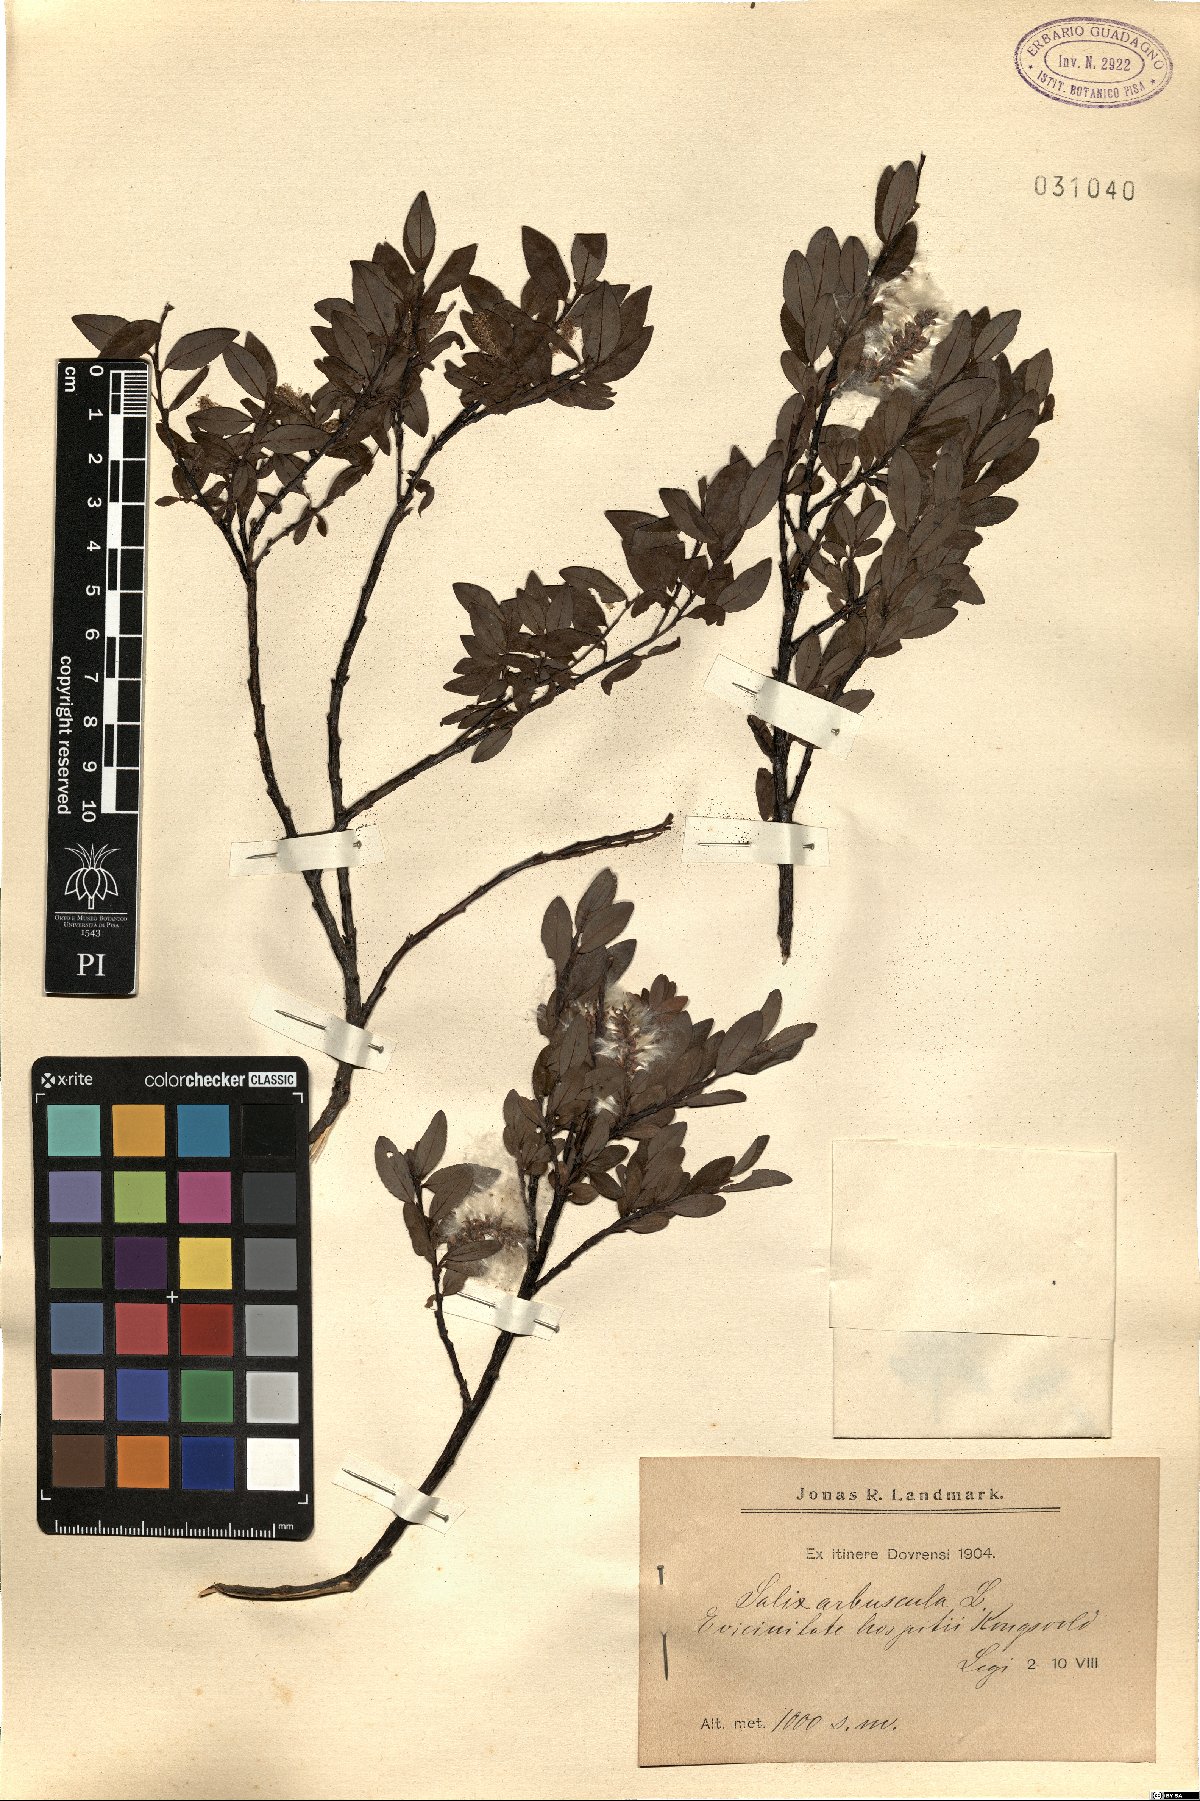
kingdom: Plantae
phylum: Tracheophyta
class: Magnoliopsida
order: Malpighiales
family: Salicaceae
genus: Salix
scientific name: Salix arbuscula
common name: Mountain willow
